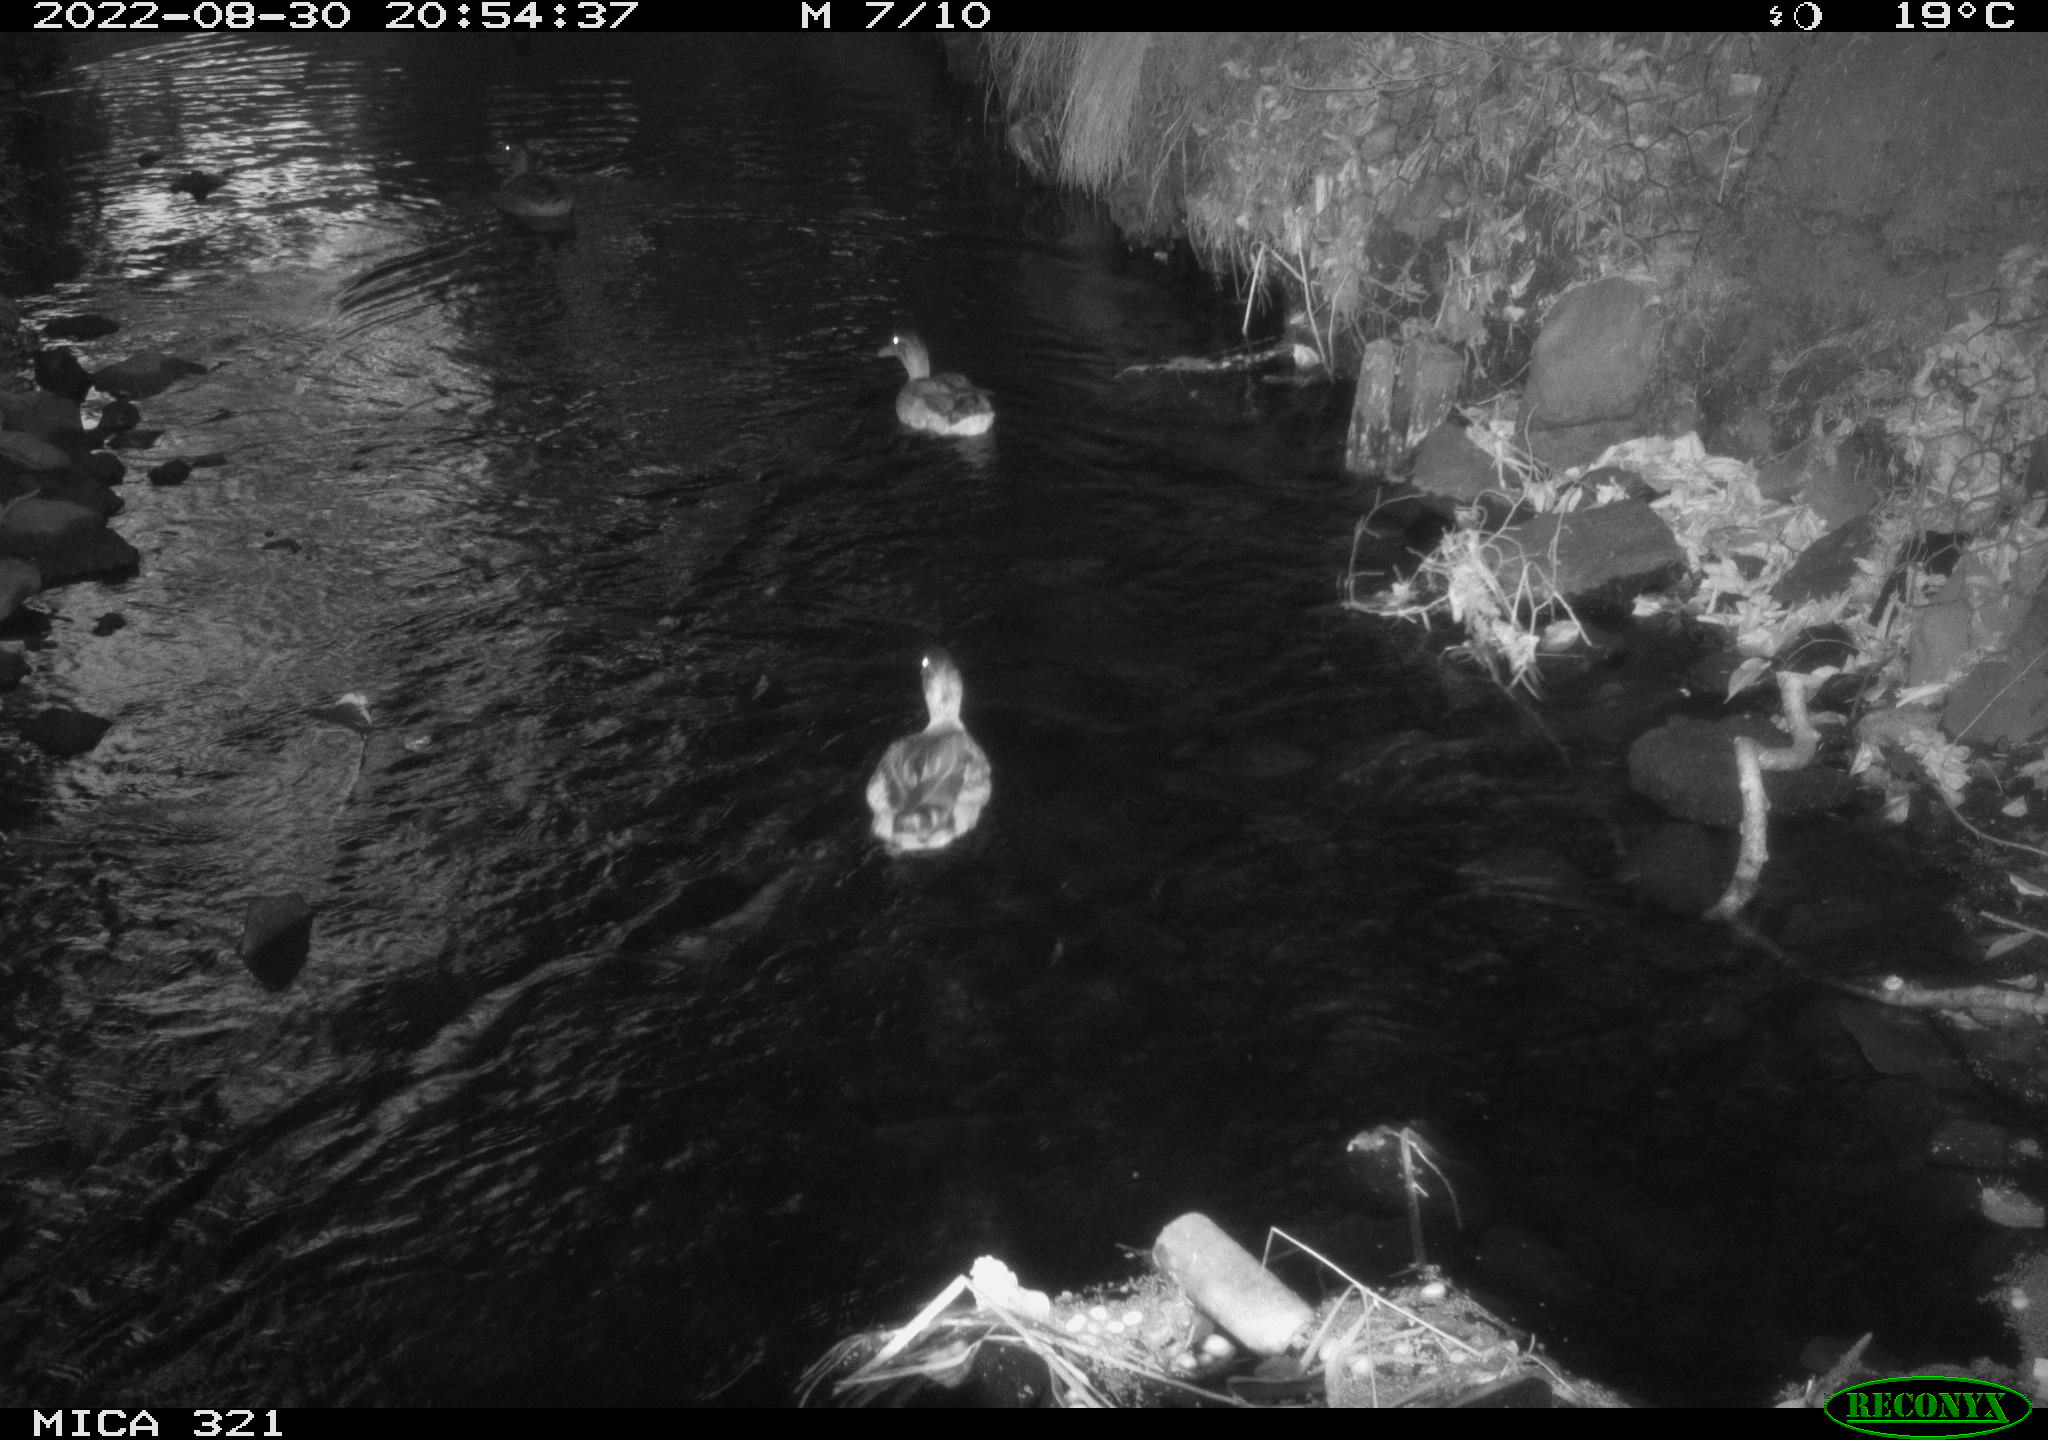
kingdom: Animalia
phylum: Chordata
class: Aves
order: Anseriformes
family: Anatidae
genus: Anas
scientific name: Anas platyrhynchos
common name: Mallard
